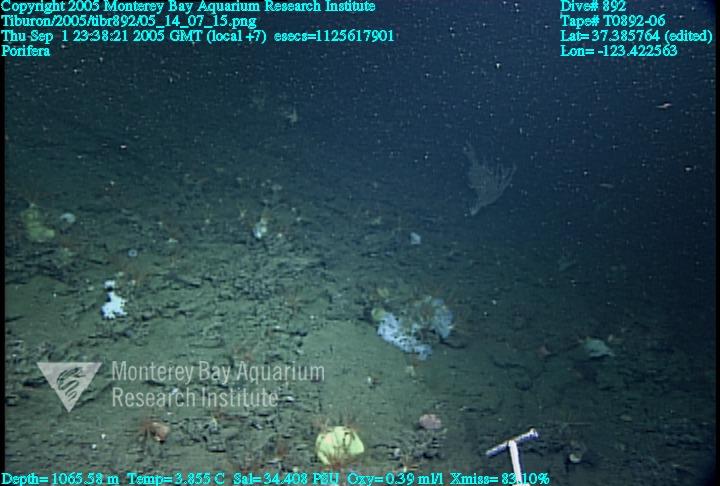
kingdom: Animalia
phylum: Porifera
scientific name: Porifera
